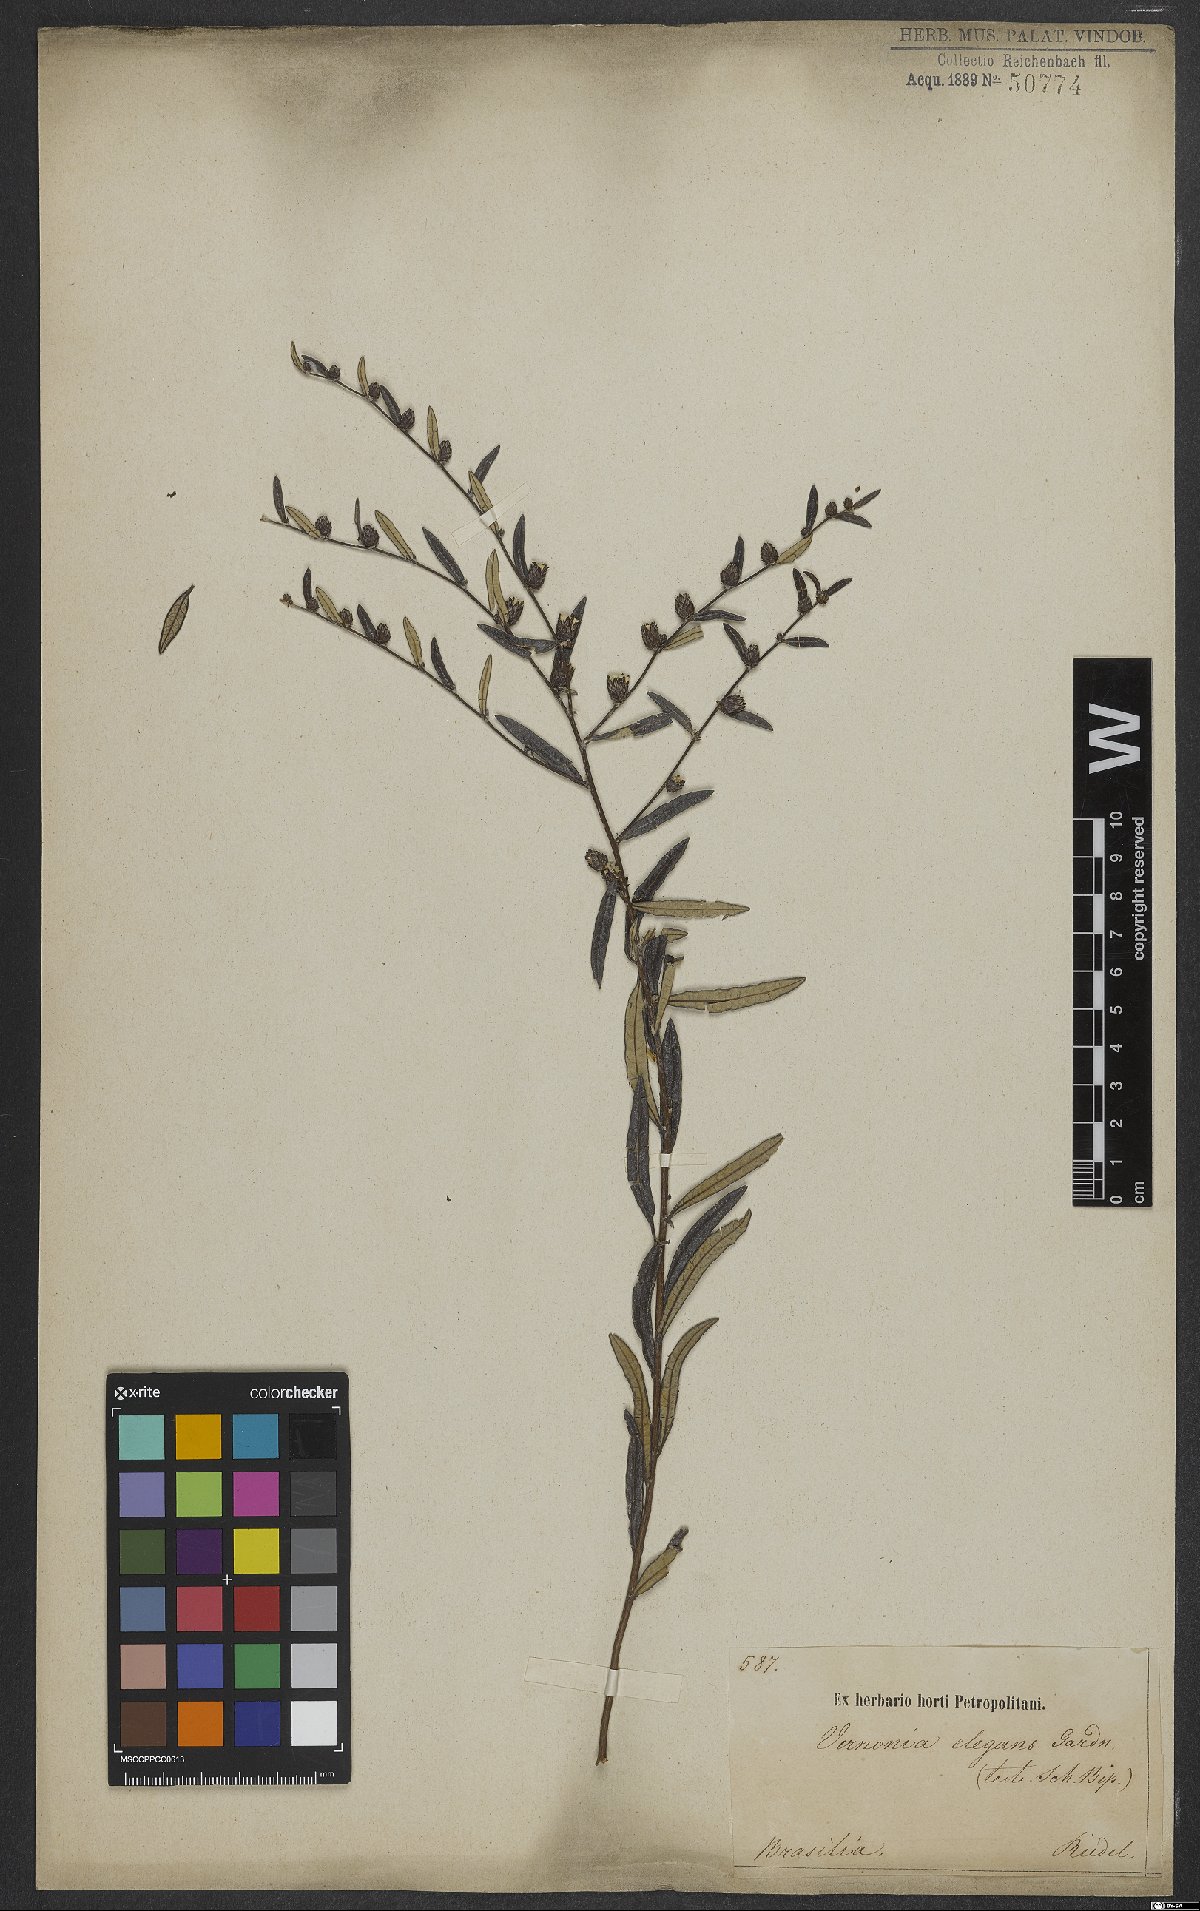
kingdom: Plantae
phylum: Tracheophyta
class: Magnoliopsida
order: Asterales
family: Asteraceae
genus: Lessingianthus
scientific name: Lessingianthus elegans
